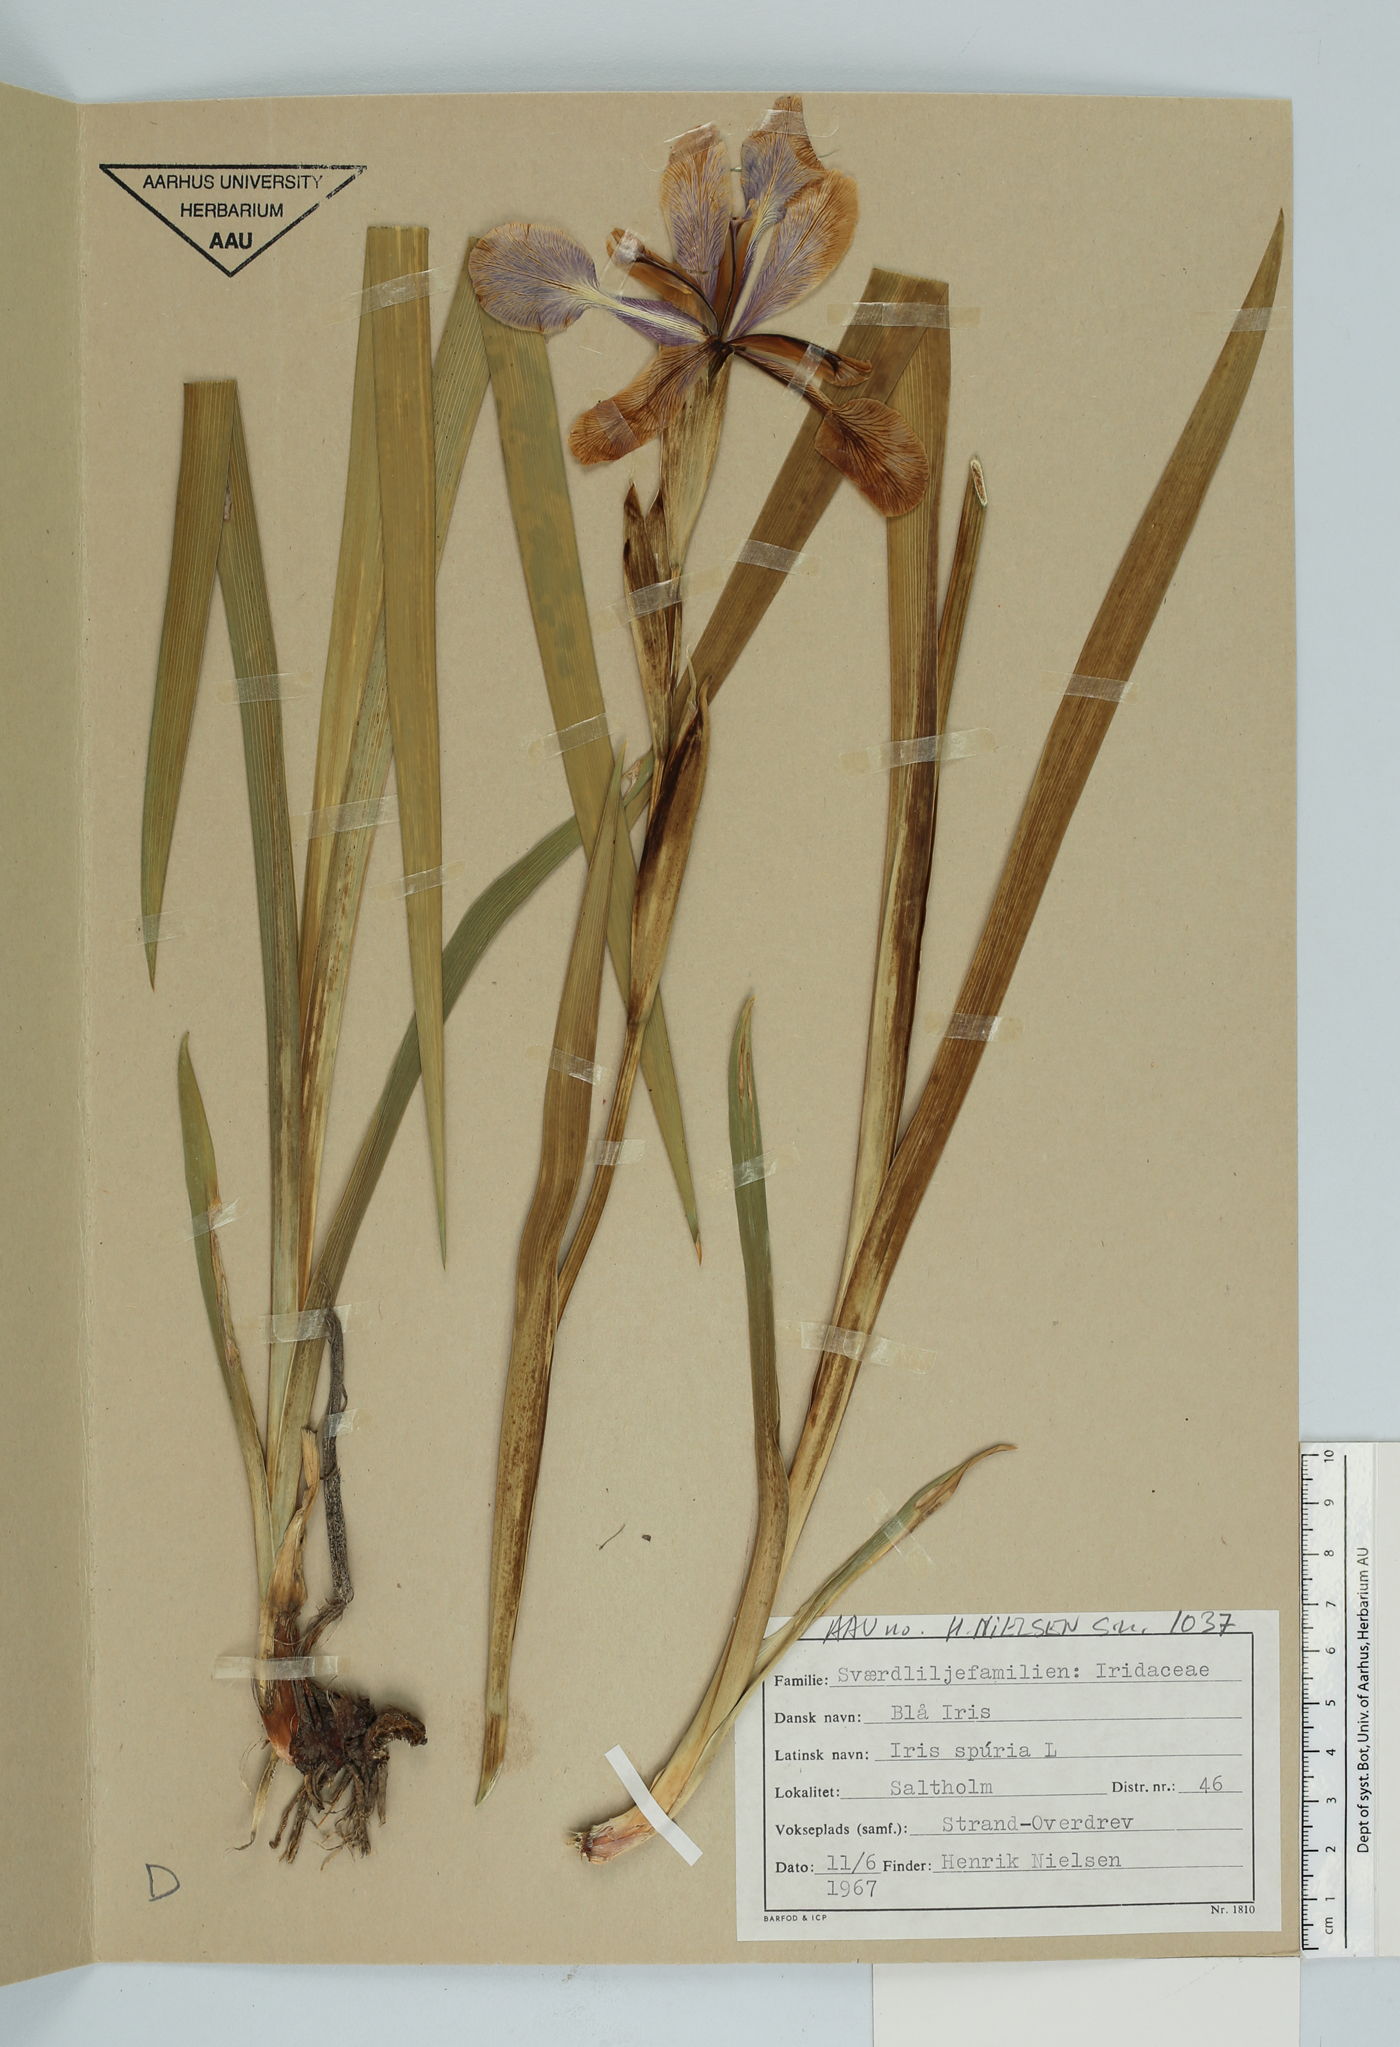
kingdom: Plantae
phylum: Tracheophyta
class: Liliopsida
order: Asparagales
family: Iridaceae
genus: Iris
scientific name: Iris spuria
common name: Blue iris
